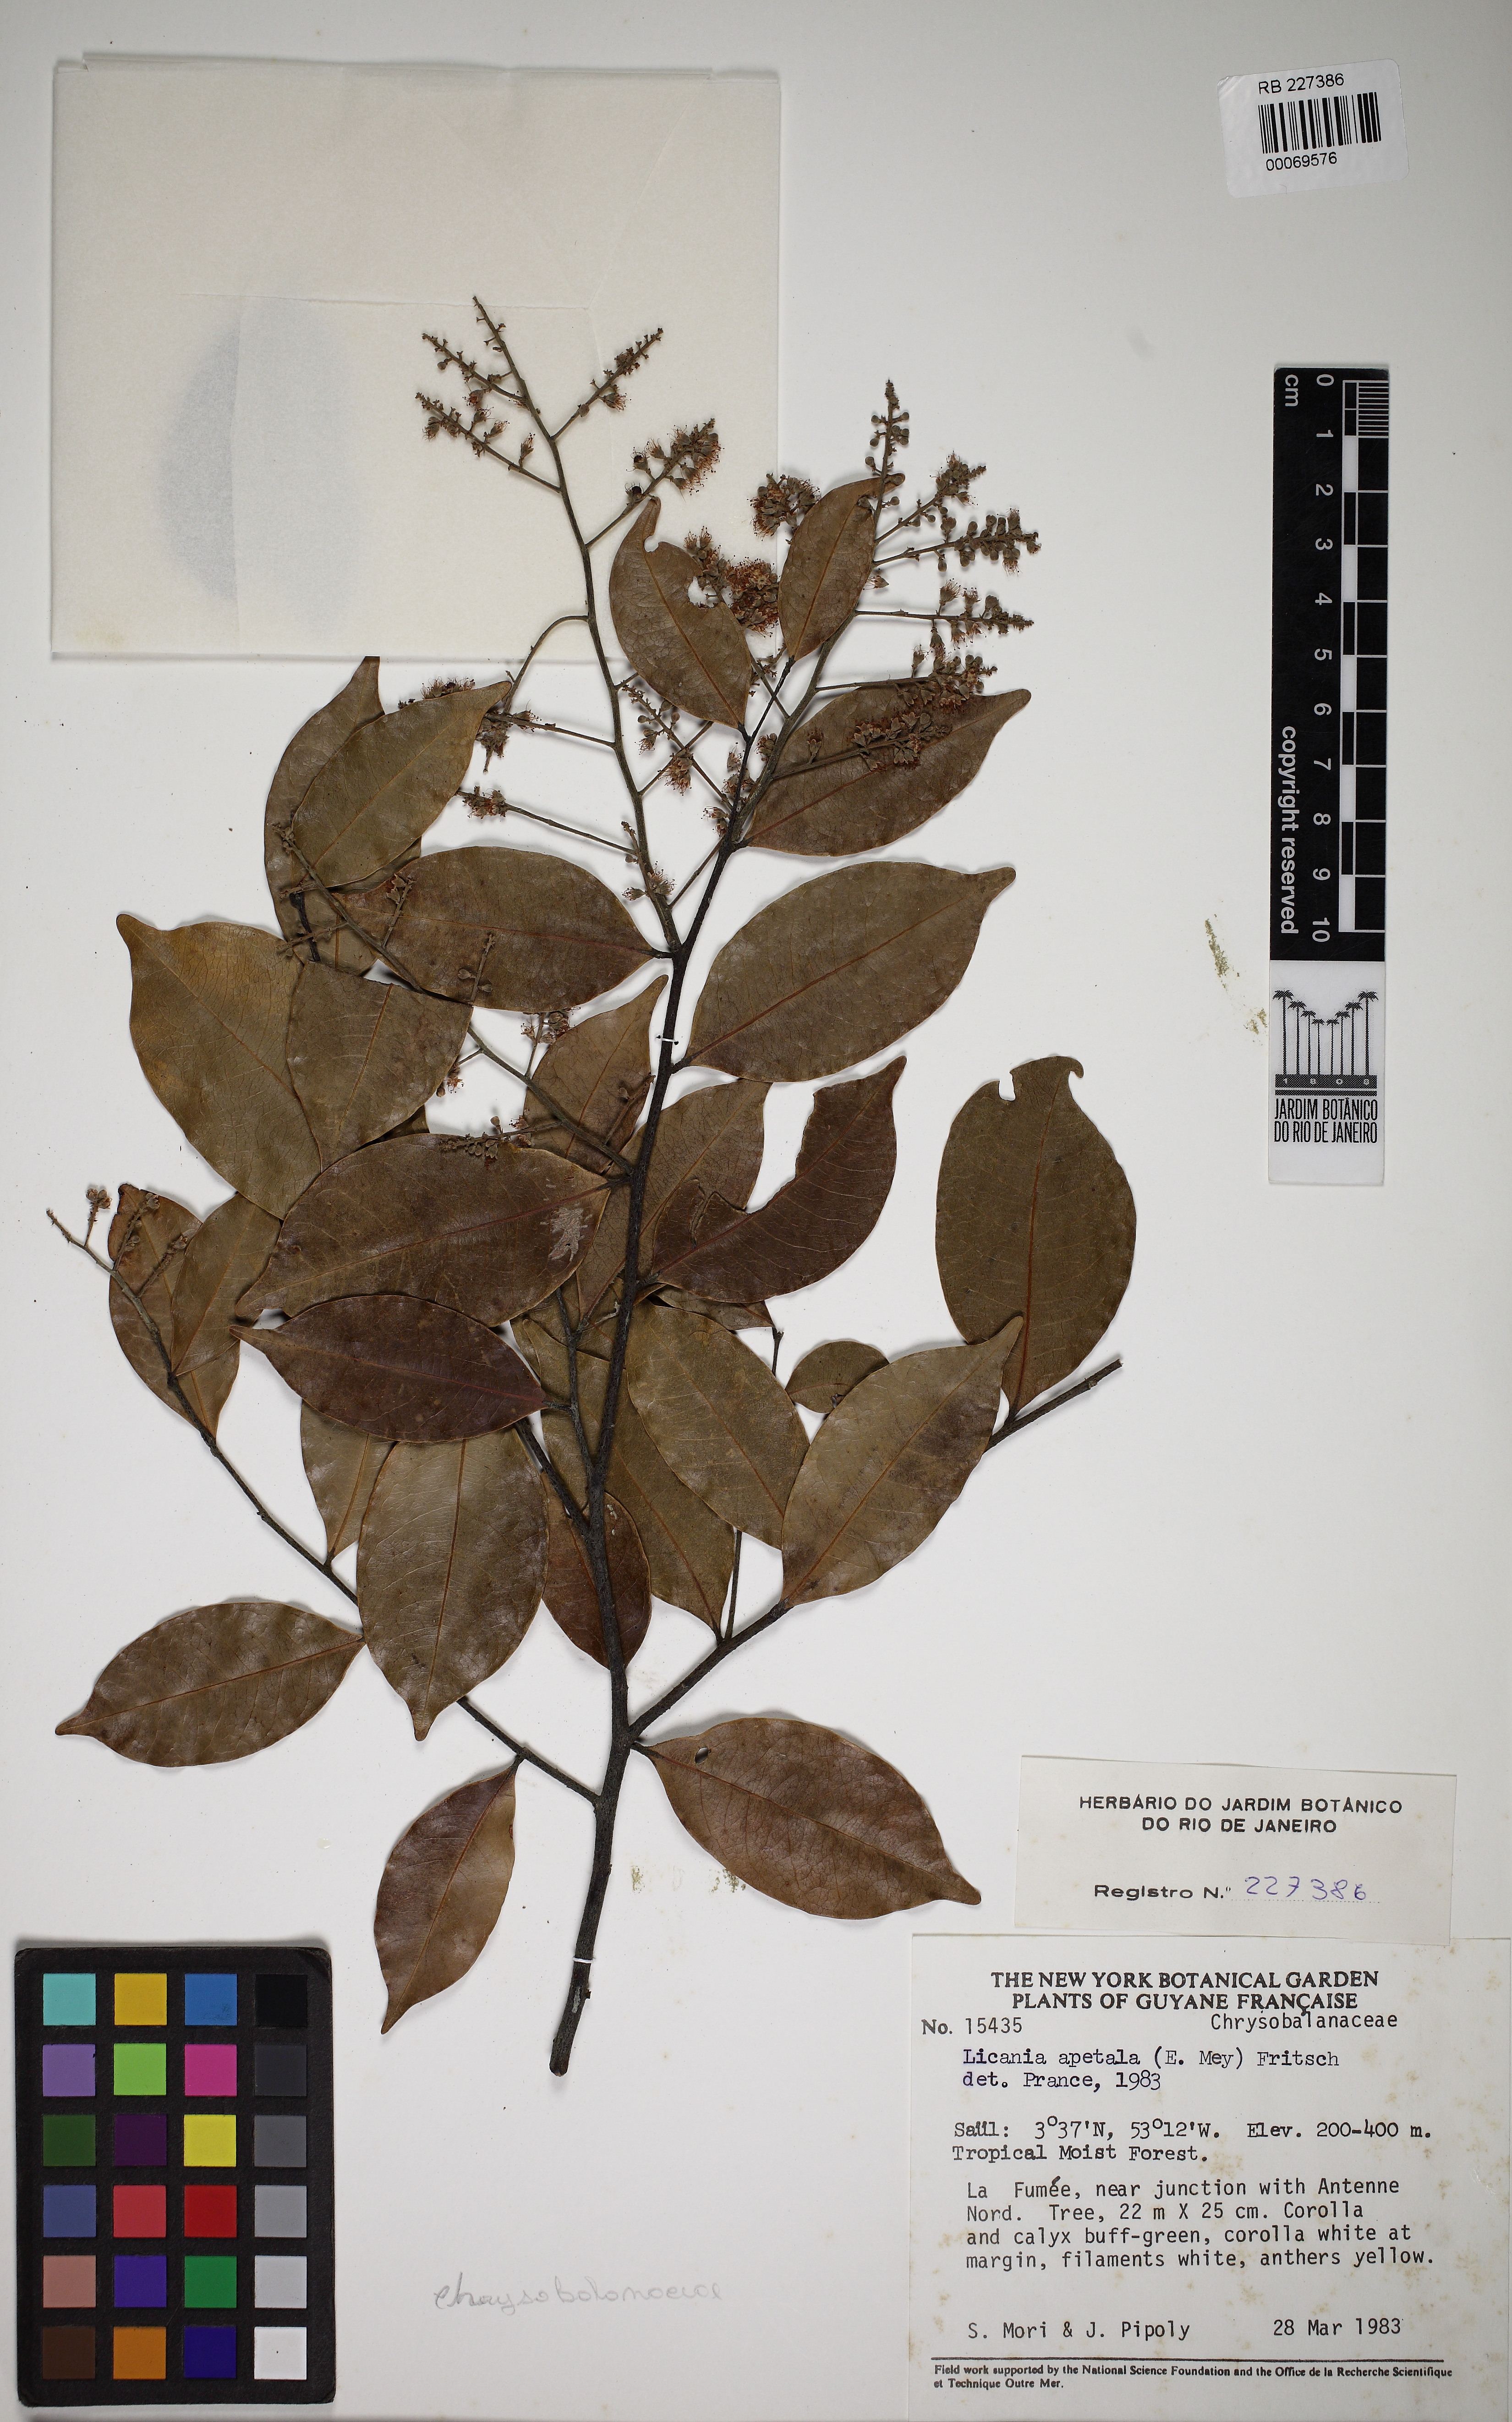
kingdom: Plantae
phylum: Tracheophyta
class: Magnoliopsida
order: Malpighiales
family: Chrysobalanaceae
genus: Leptobalanus
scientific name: Leptobalanus apetalus
